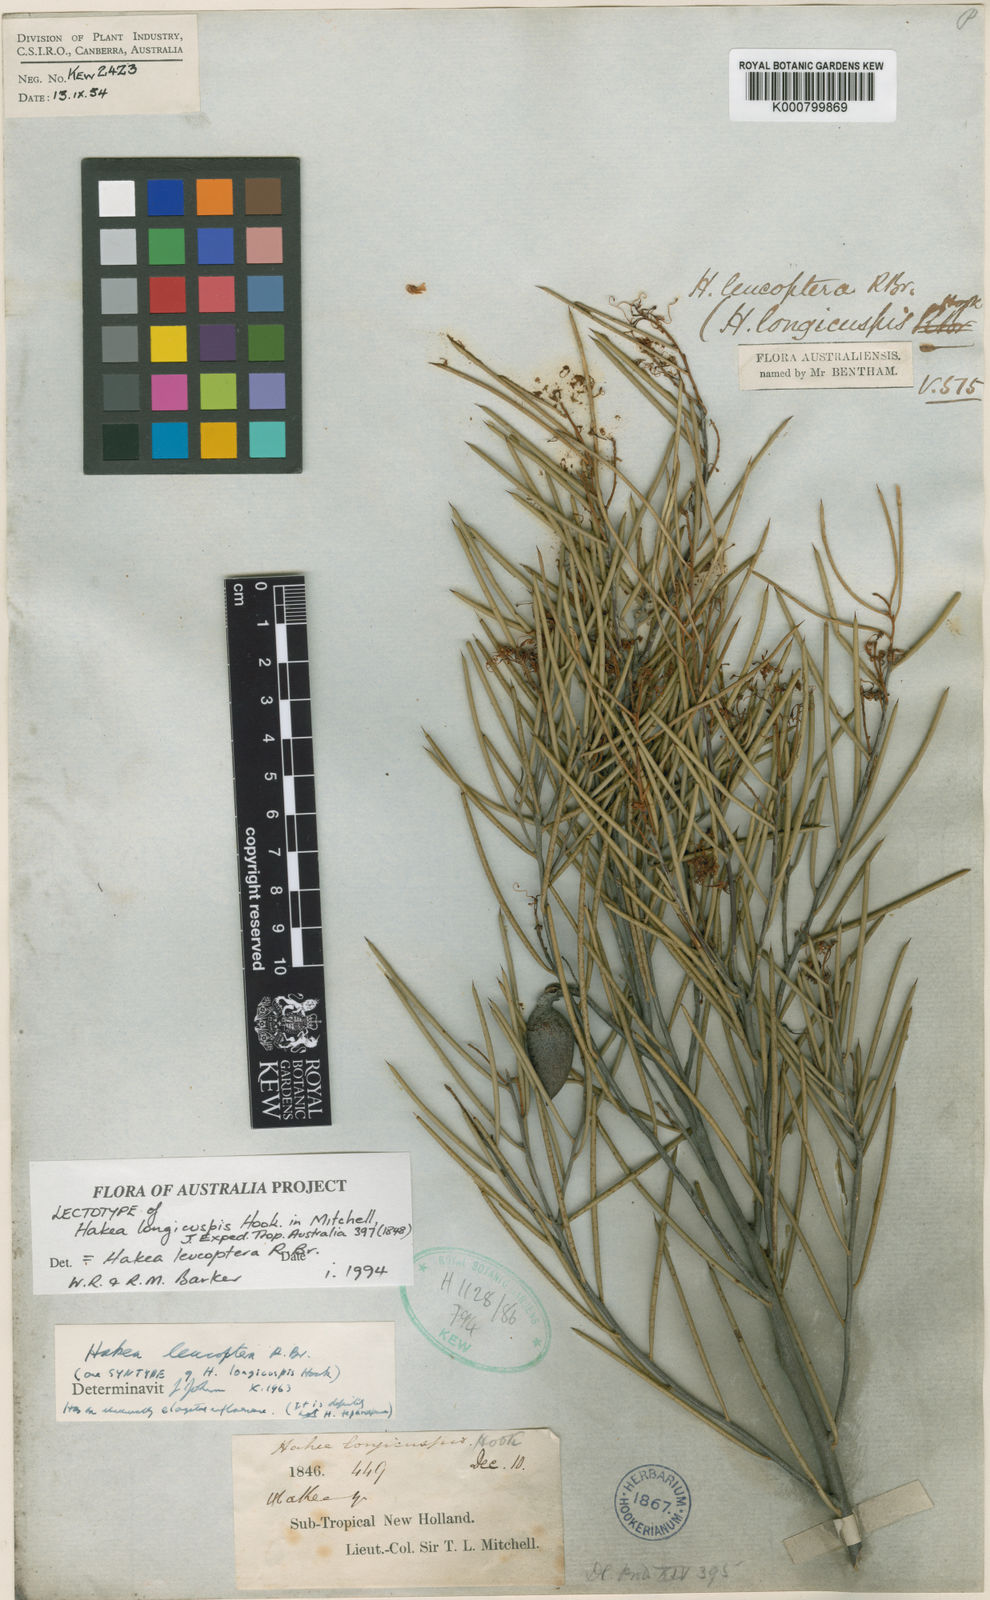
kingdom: Plantae
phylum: Tracheophyta
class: Magnoliopsida
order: Proteales
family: Proteaceae
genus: Hakea
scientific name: Hakea leucoptera
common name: Pinbush
